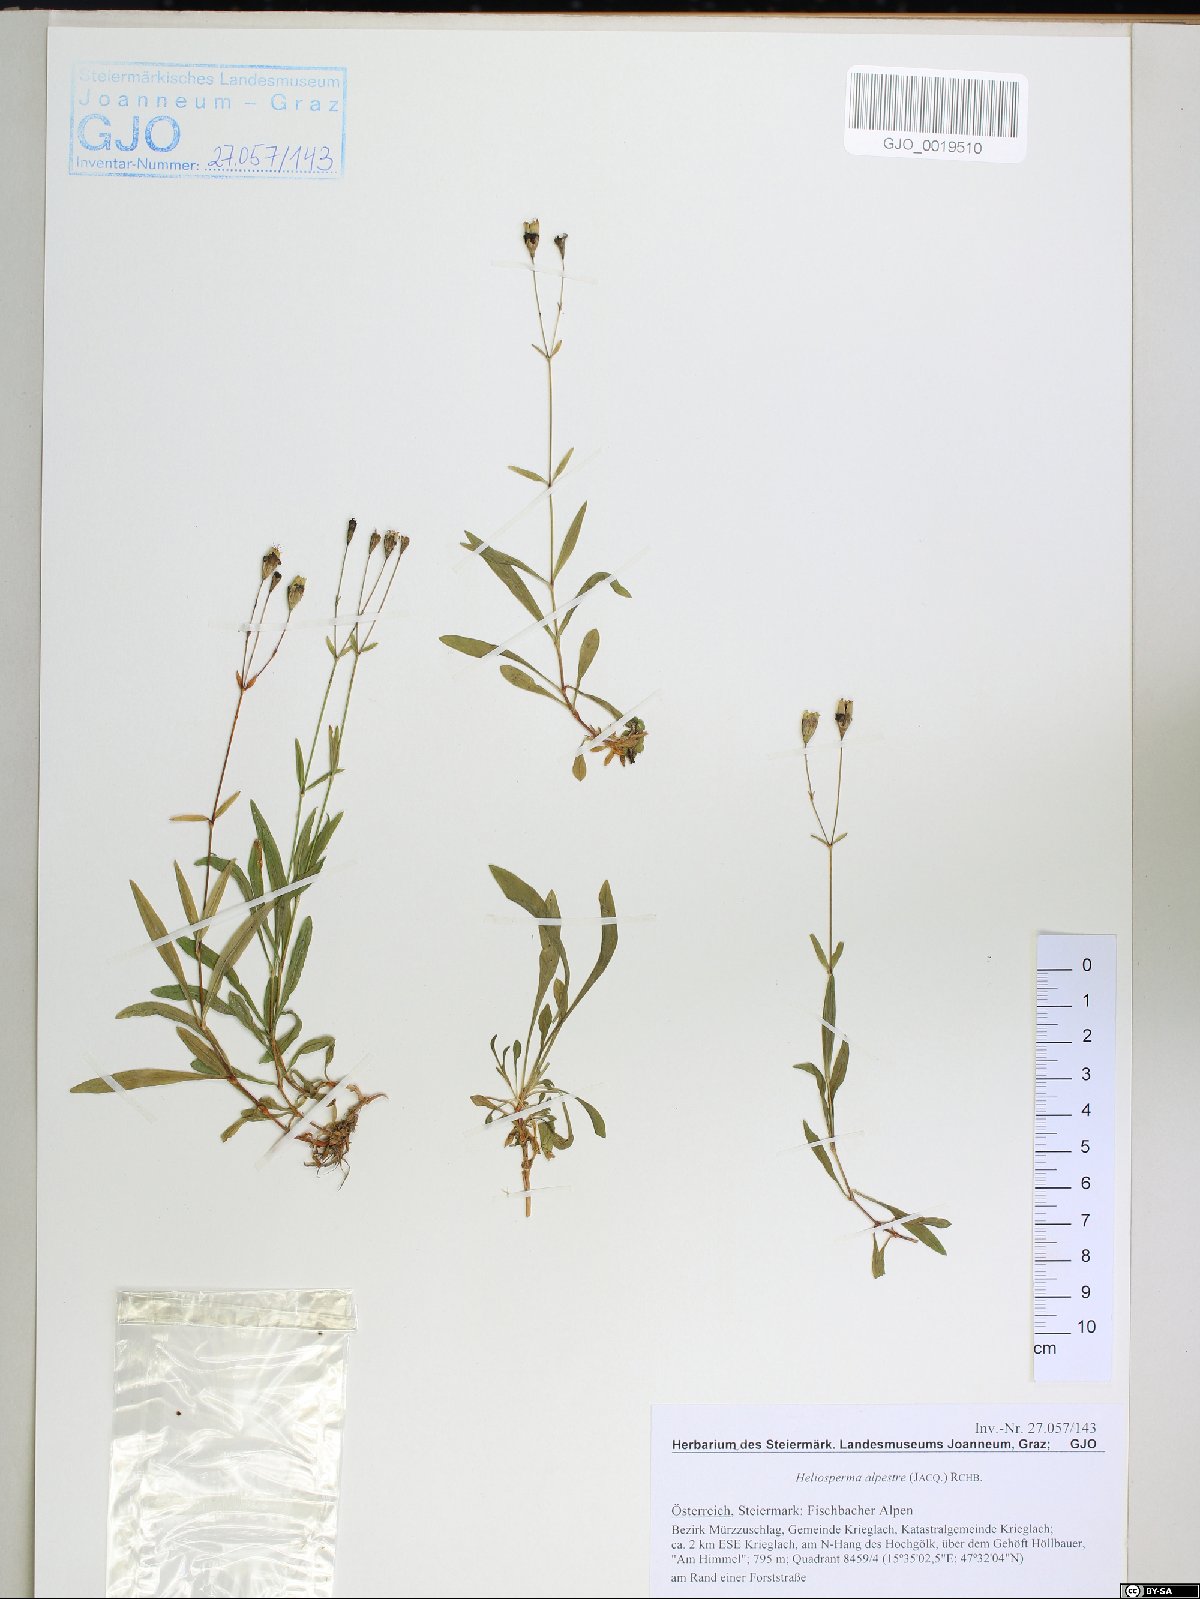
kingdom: Plantae
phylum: Tracheophyta
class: Magnoliopsida
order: Caryophyllales
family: Caryophyllaceae
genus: Heliosperma
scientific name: Heliosperma alpestre
